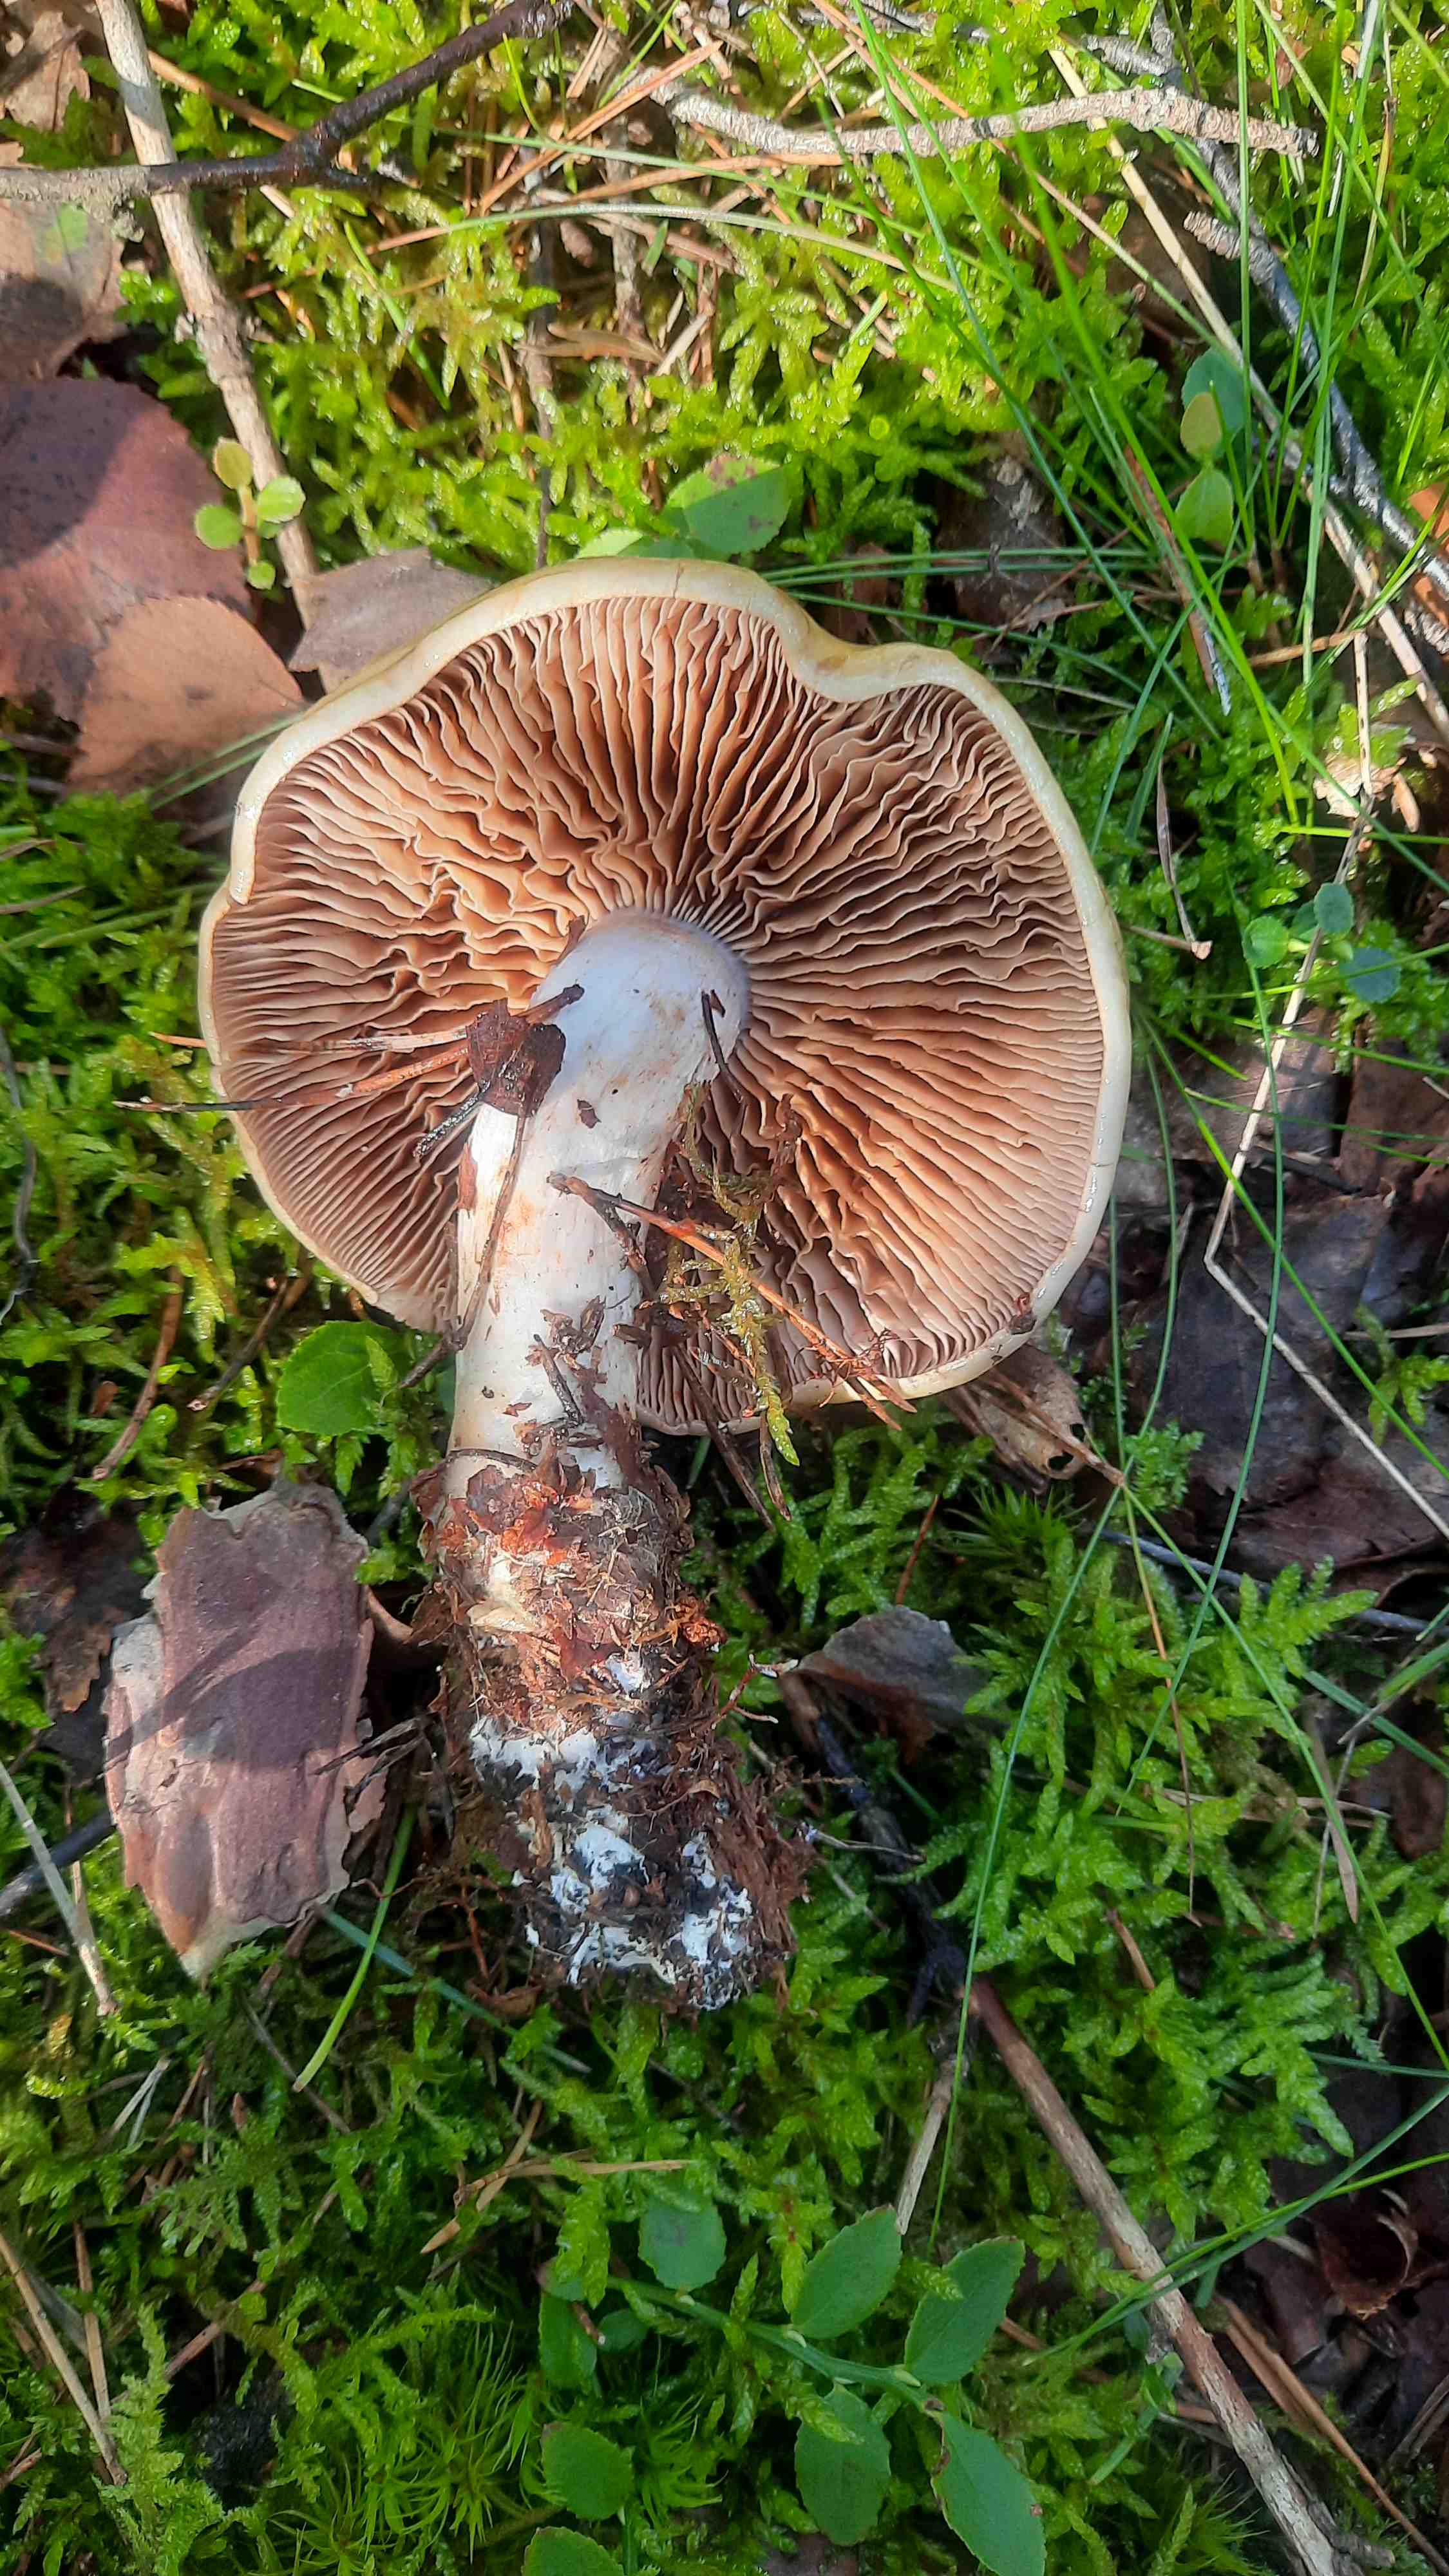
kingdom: Fungi
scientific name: Fungi
